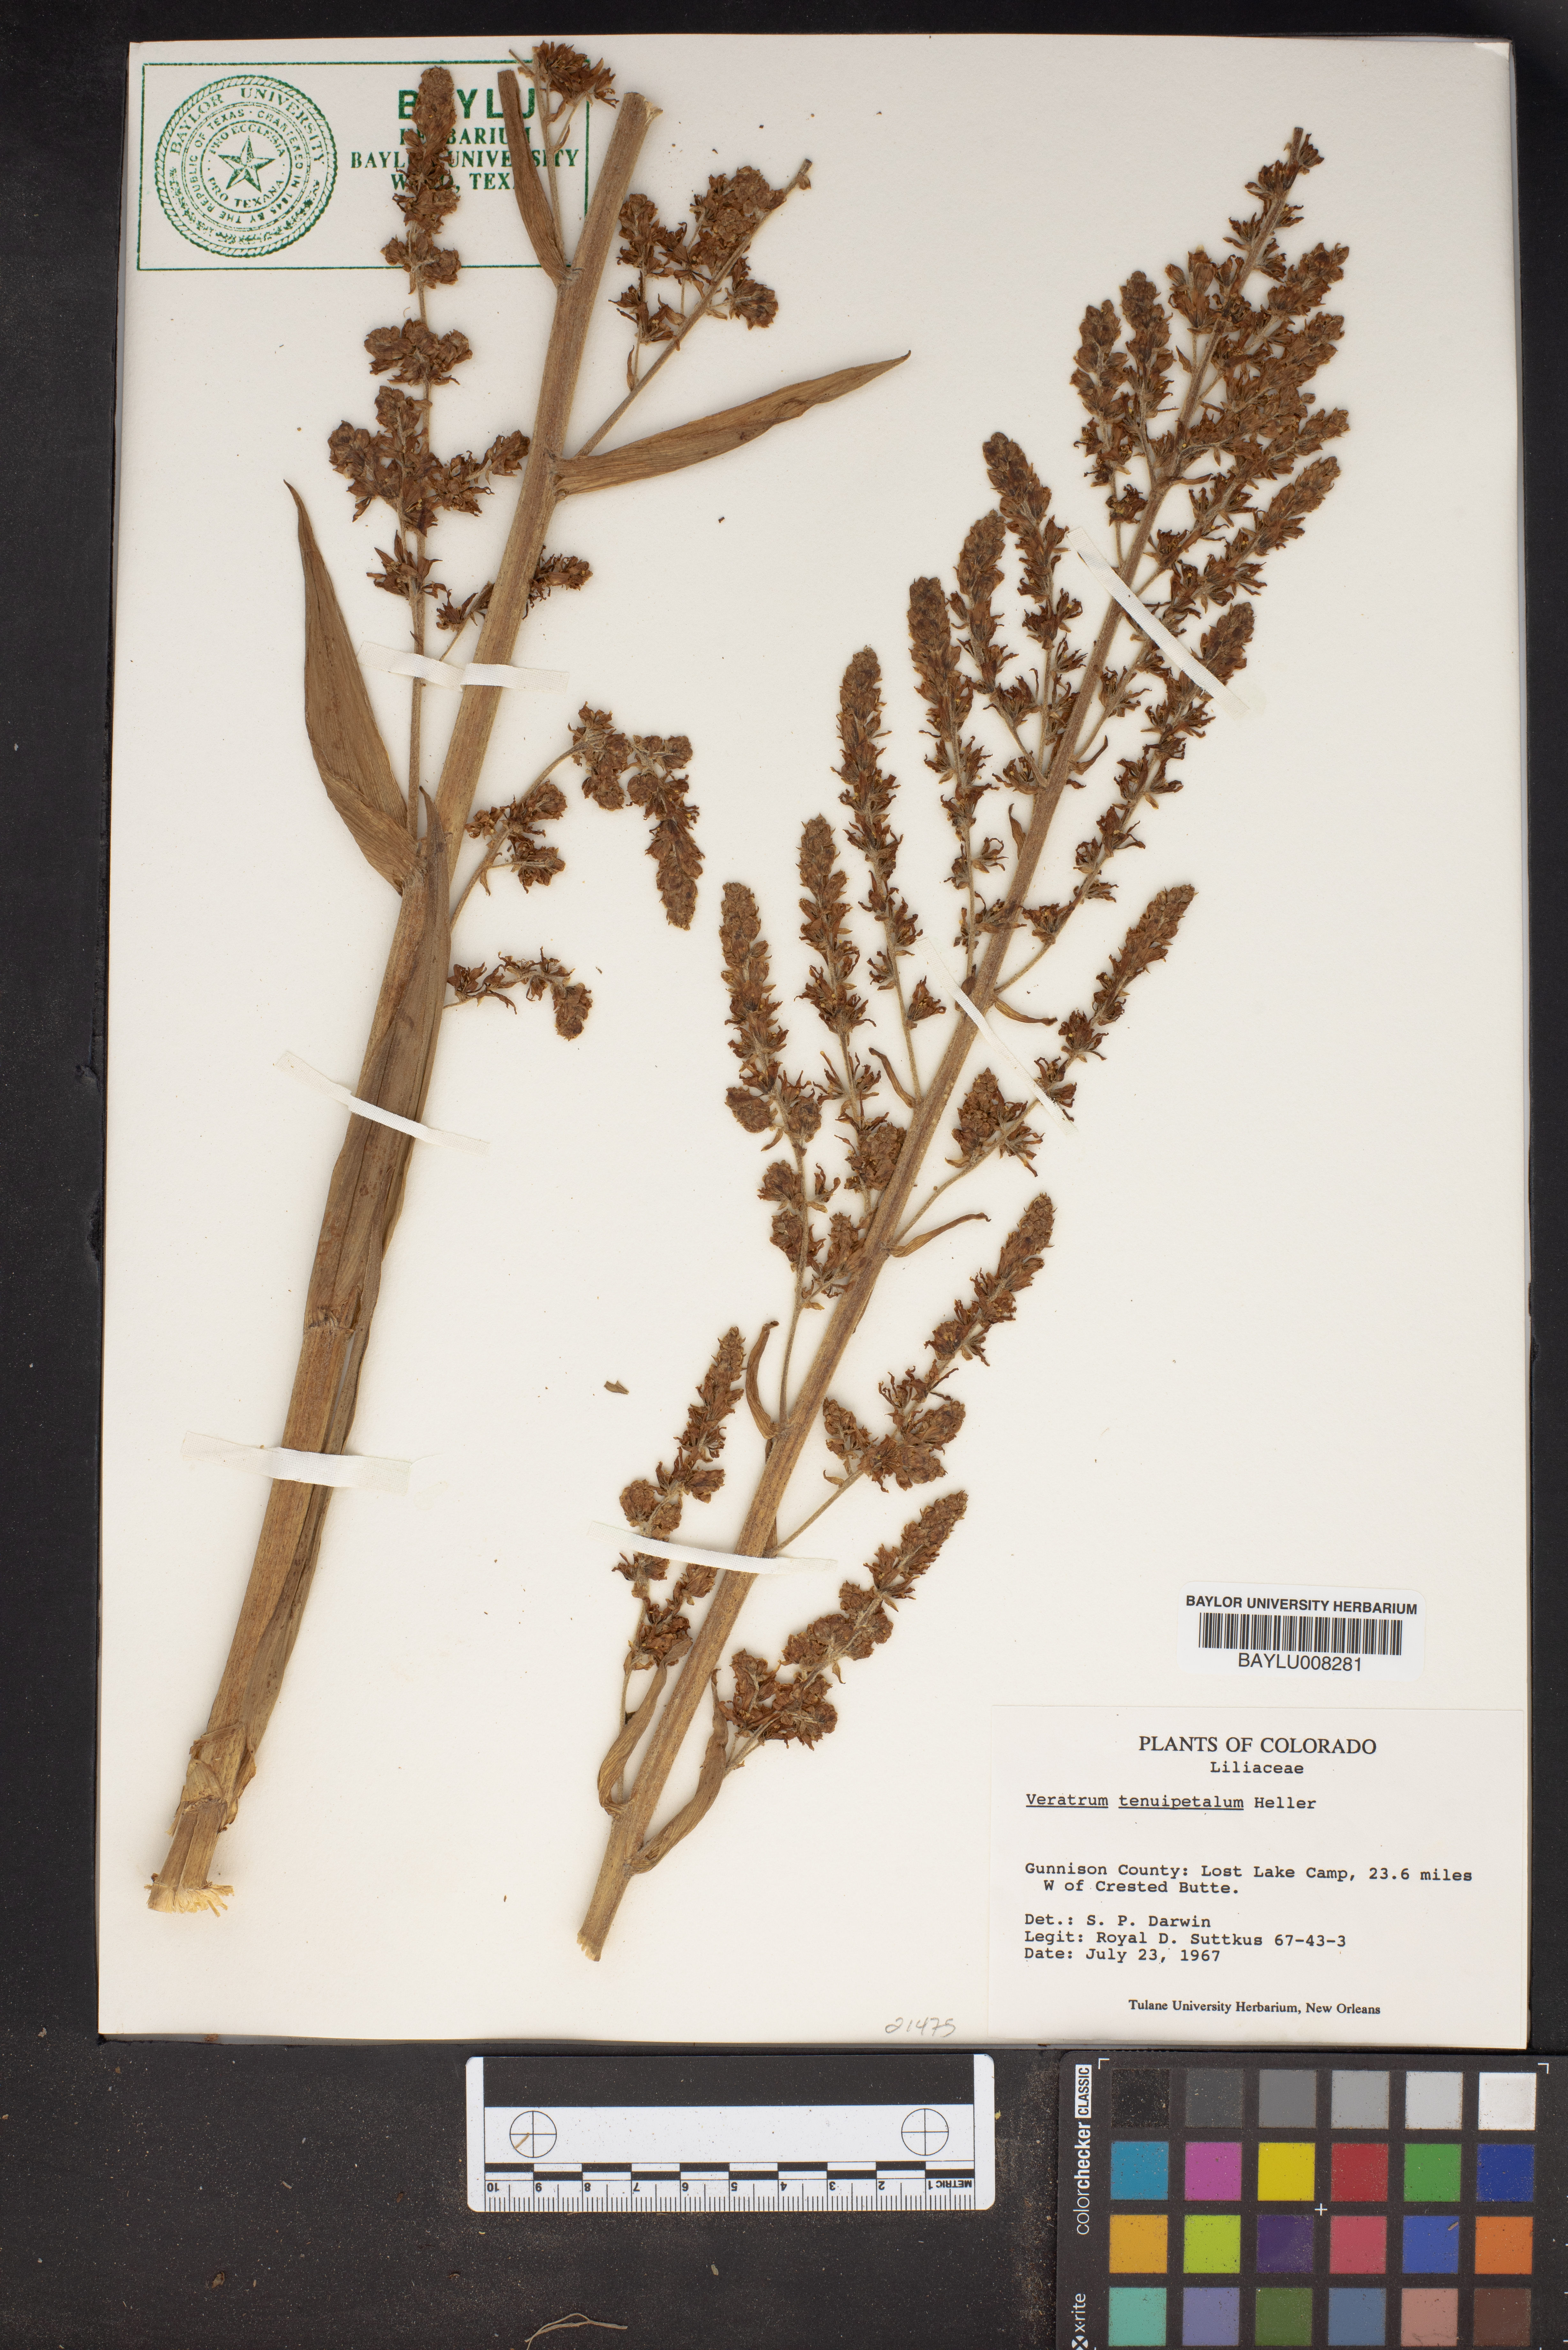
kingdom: Plantae
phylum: Tracheophyta
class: Liliopsida
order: Liliales
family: Melanthiaceae
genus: Veratrum
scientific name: Veratrum californicum
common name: California veratrum
